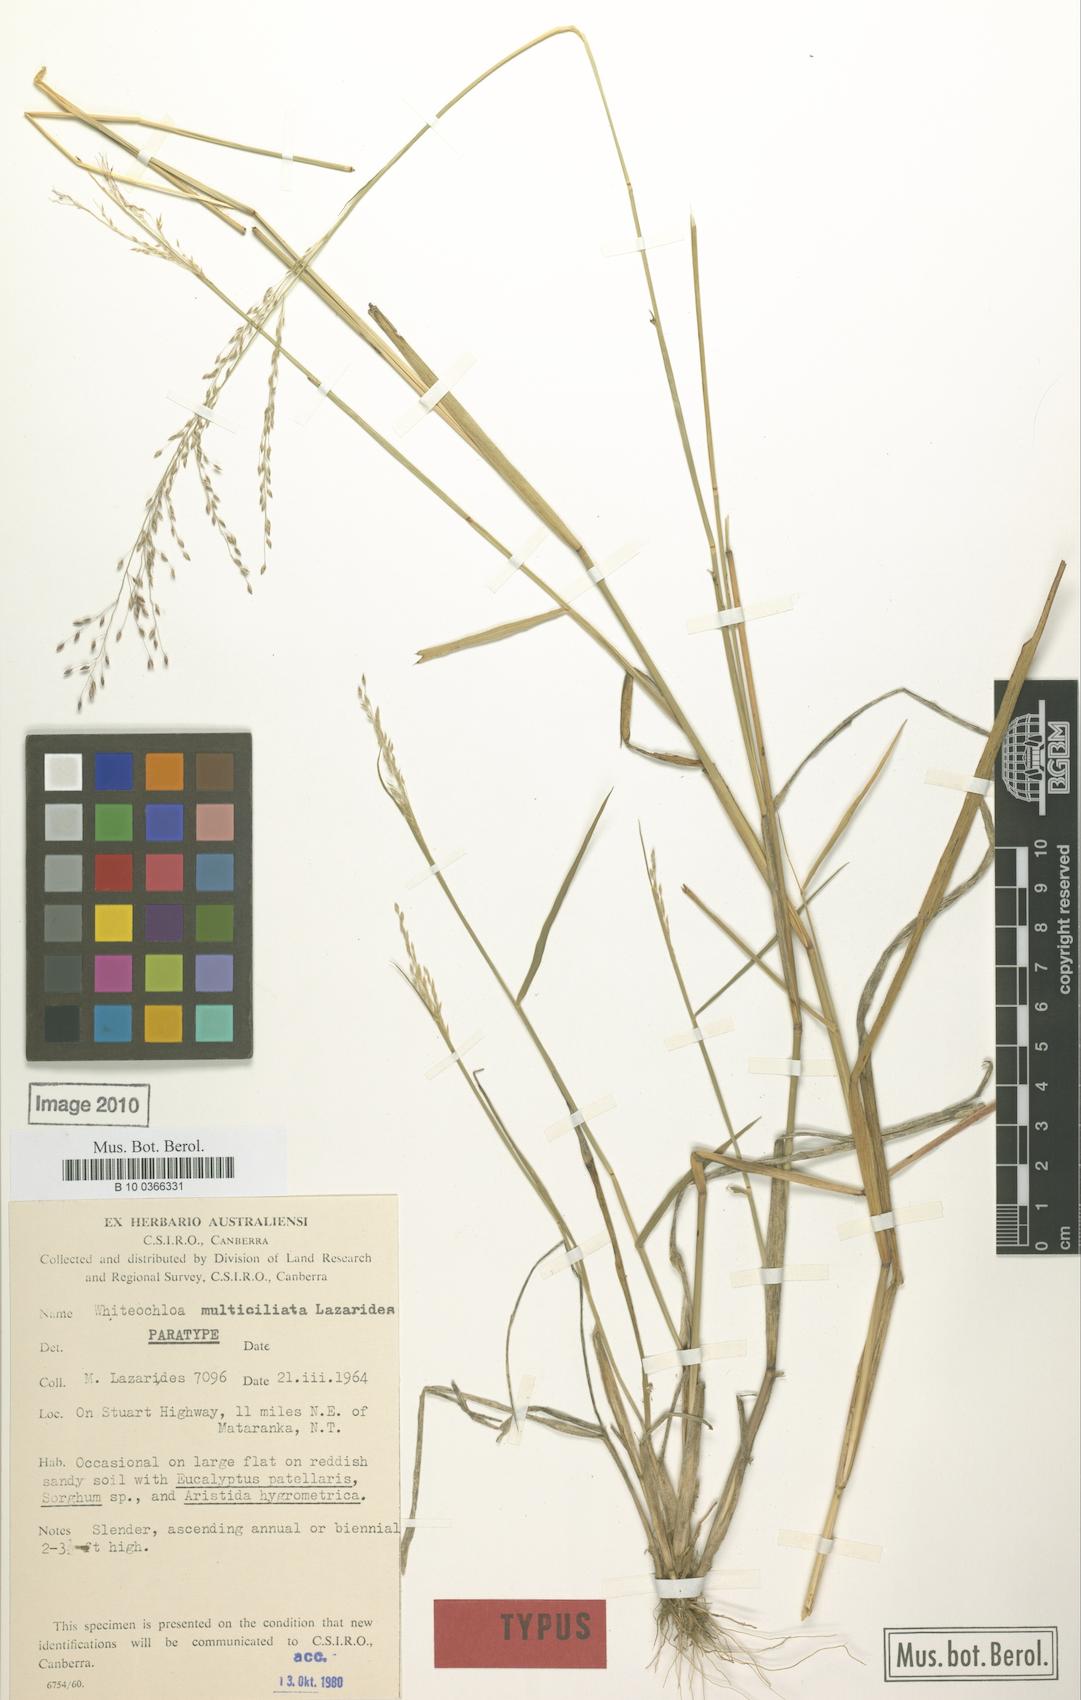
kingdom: Plantae
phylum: Tracheophyta
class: Liliopsida
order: Poales
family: Poaceae
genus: Whiteochloa
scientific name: Whiteochloa multiciliata
